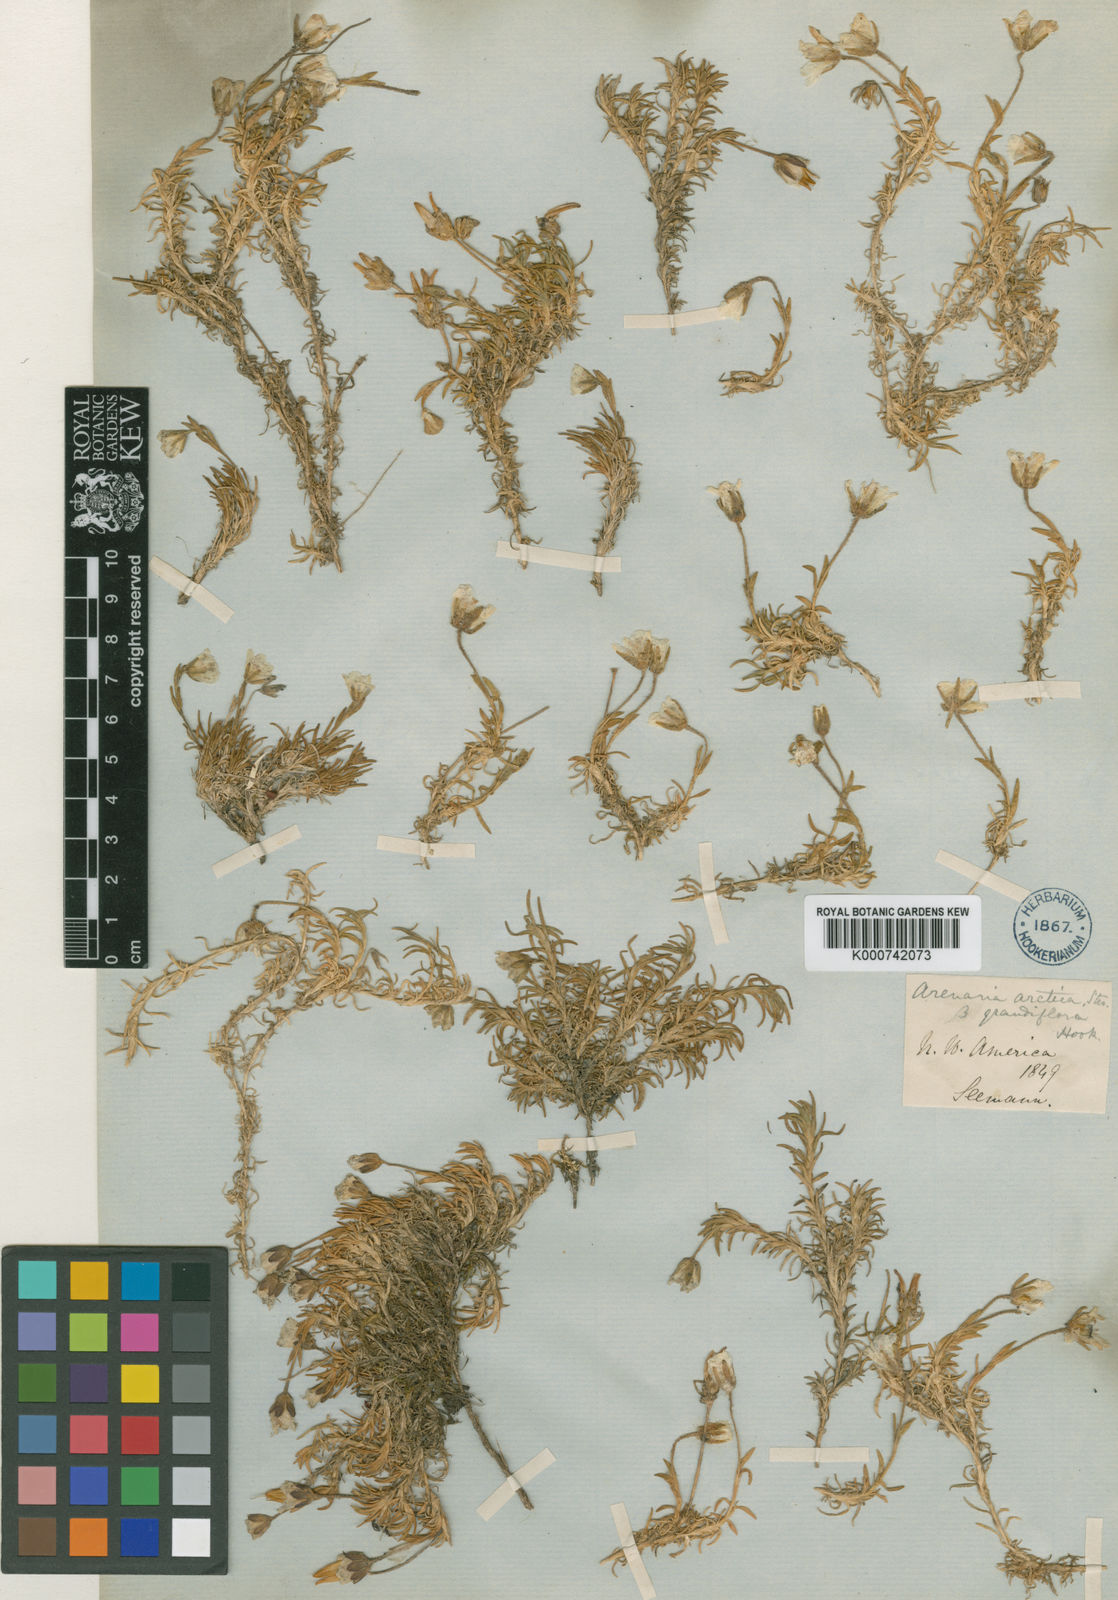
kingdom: Plantae
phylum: Tracheophyta
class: Magnoliopsida
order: Caryophyllales
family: Caryophyllaceae
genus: Cherleria
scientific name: Cherleria arctica
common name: Arctic sandwort
